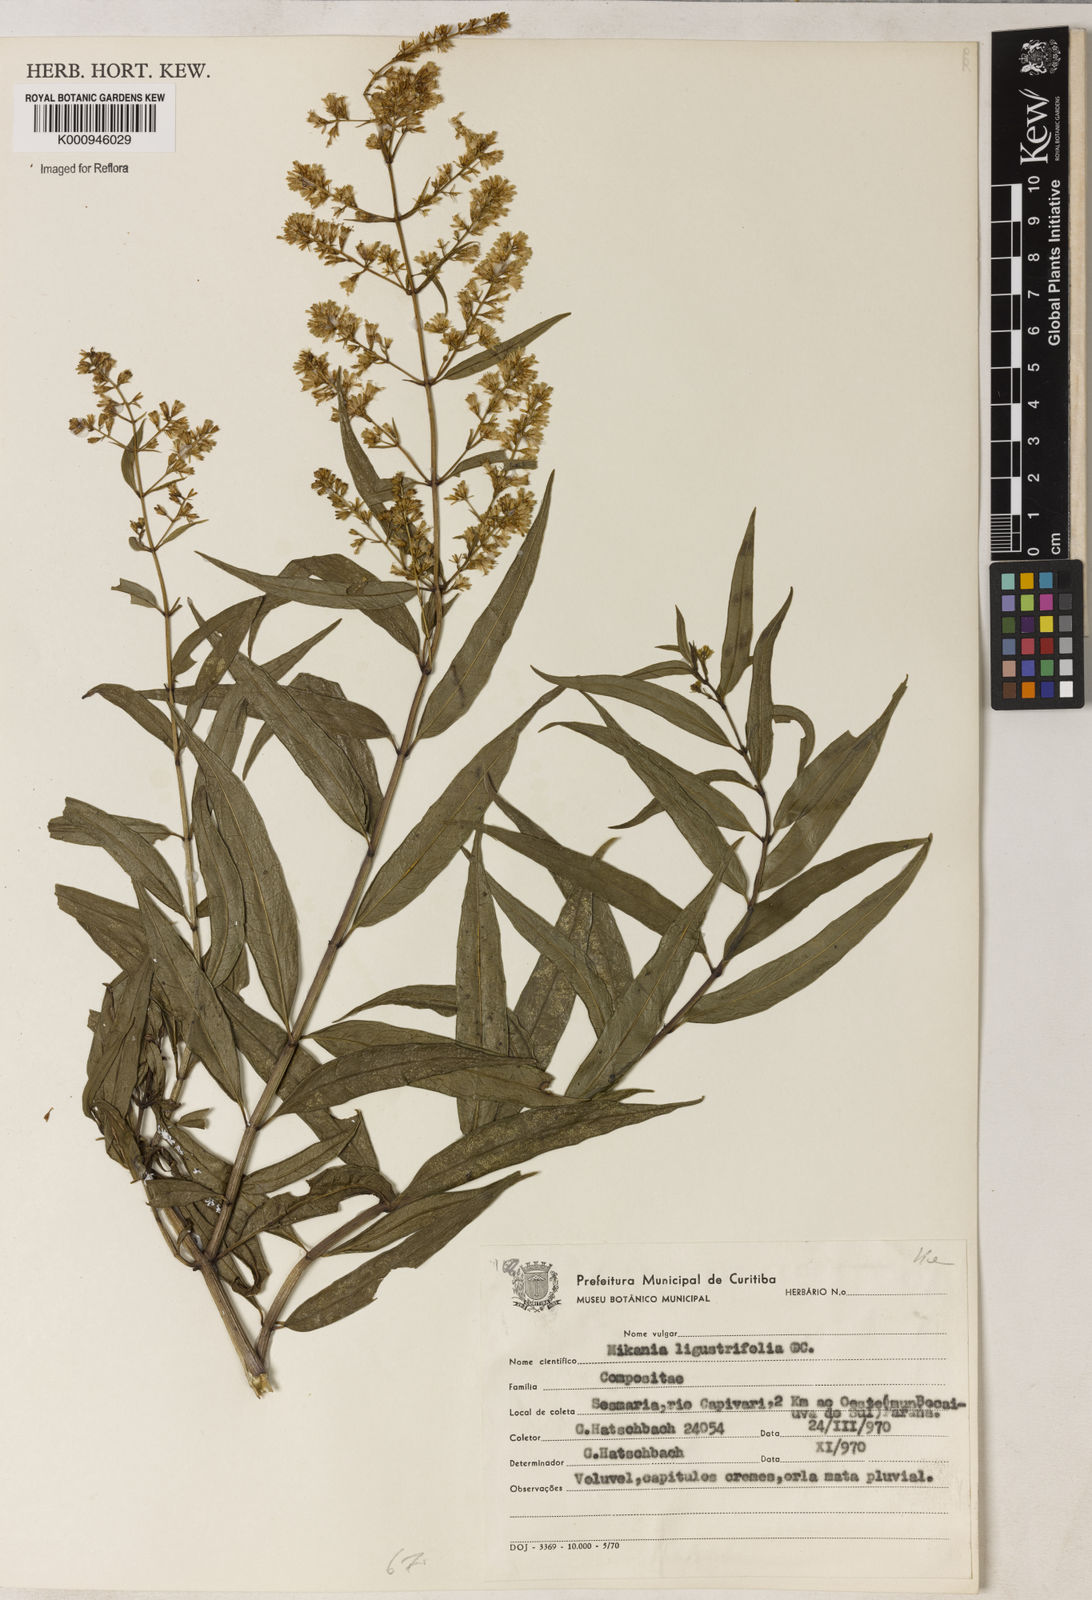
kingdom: Plantae
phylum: Tracheophyta
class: Magnoliopsida
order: Asterales
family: Asteraceae
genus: Mikania
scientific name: Mikania ligustrifolia
